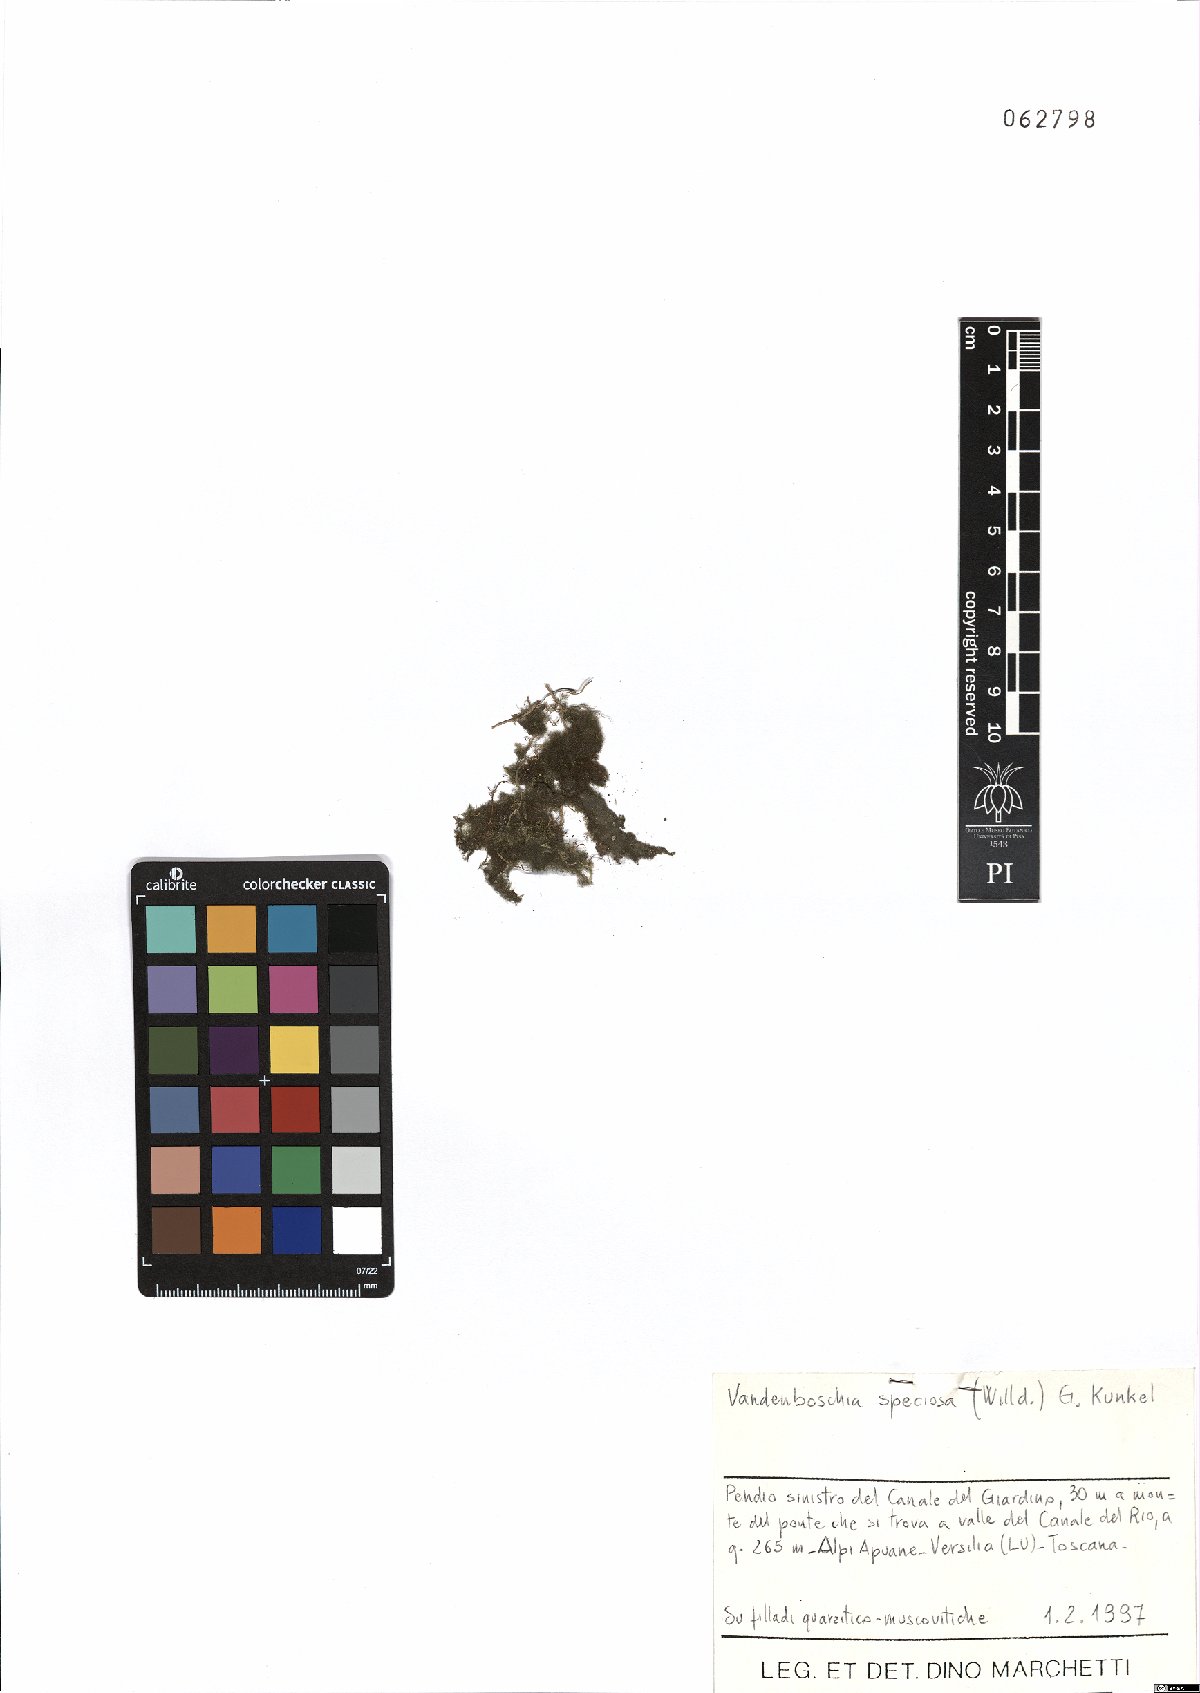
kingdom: Plantae
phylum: Tracheophyta
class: Polypodiopsida
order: Hymenophyllales
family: Hymenophyllaceae
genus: Vandenboschia
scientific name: Vandenboschia speciosa
